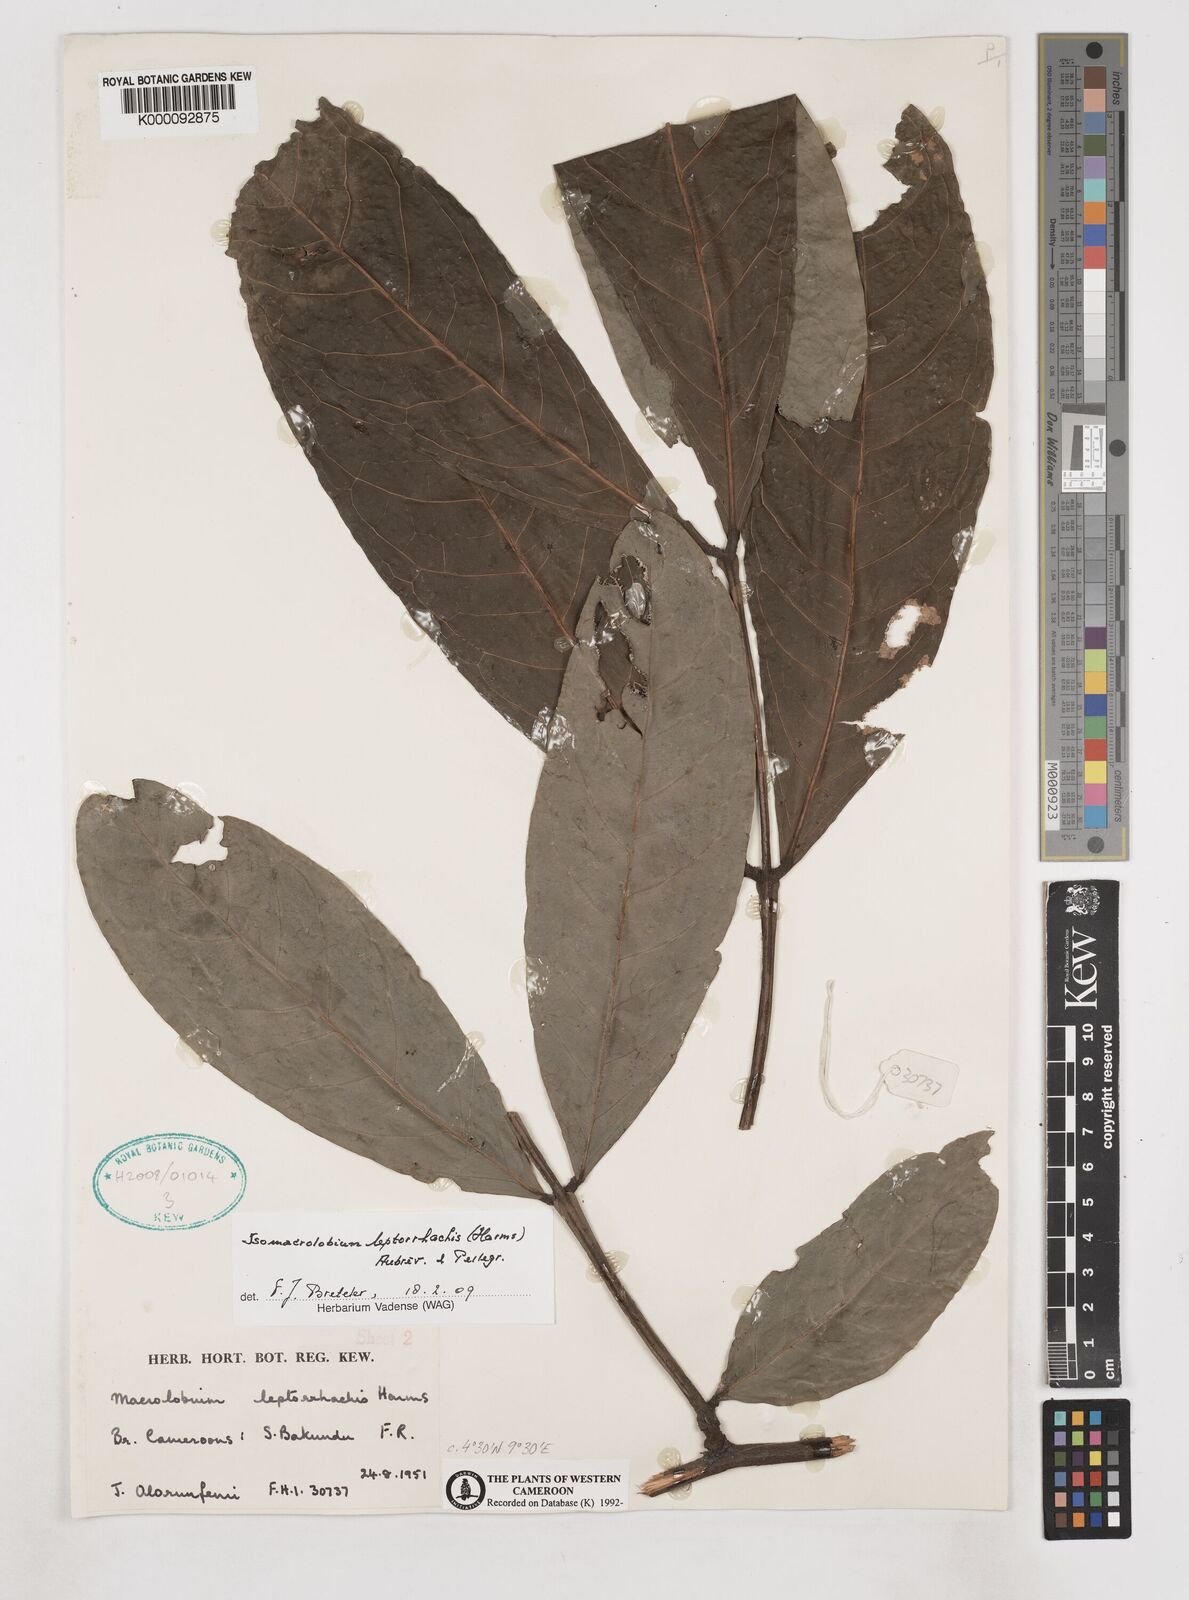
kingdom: Plantae
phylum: Tracheophyta
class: Magnoliopsida
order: Fabales
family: Fabaceae
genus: Englerodendron
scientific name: Englerodendron
